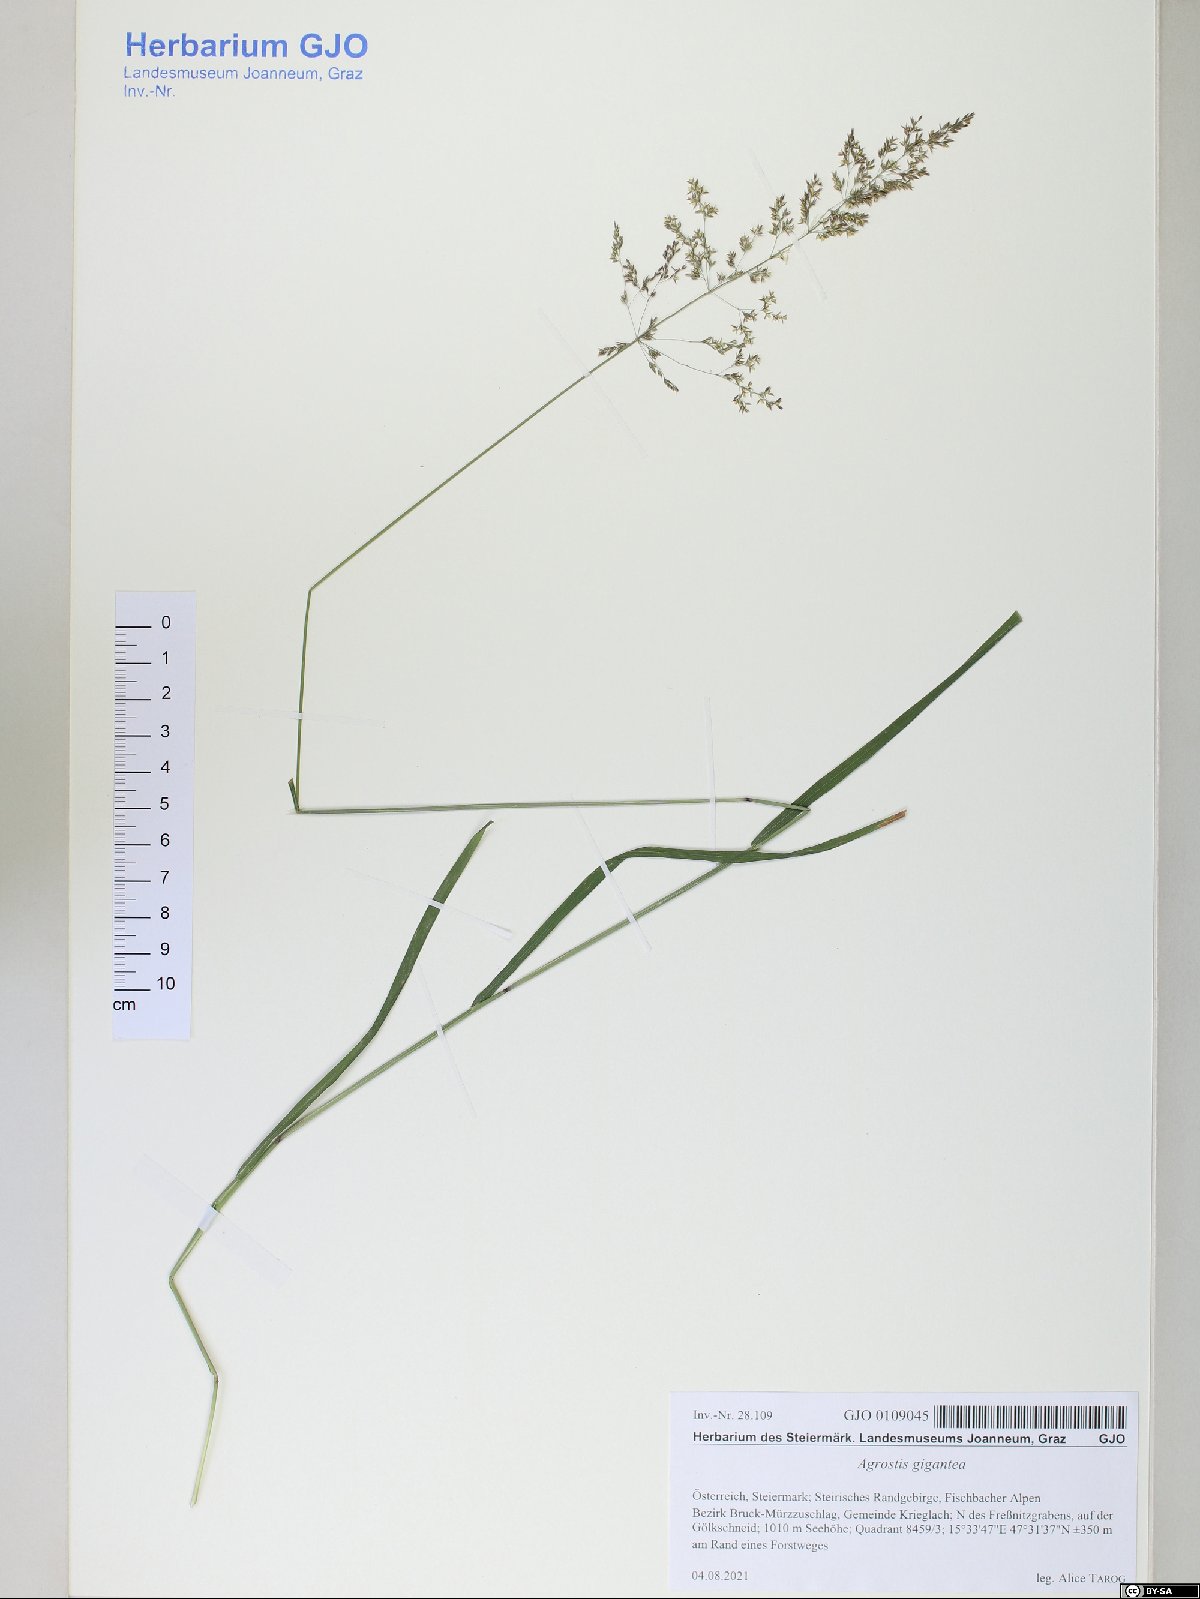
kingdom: Plantae
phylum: Tracheophyta
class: Liliopsida
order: Poales
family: Poaceae
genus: Agrostis
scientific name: Agrostis gigantea
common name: Black bent
